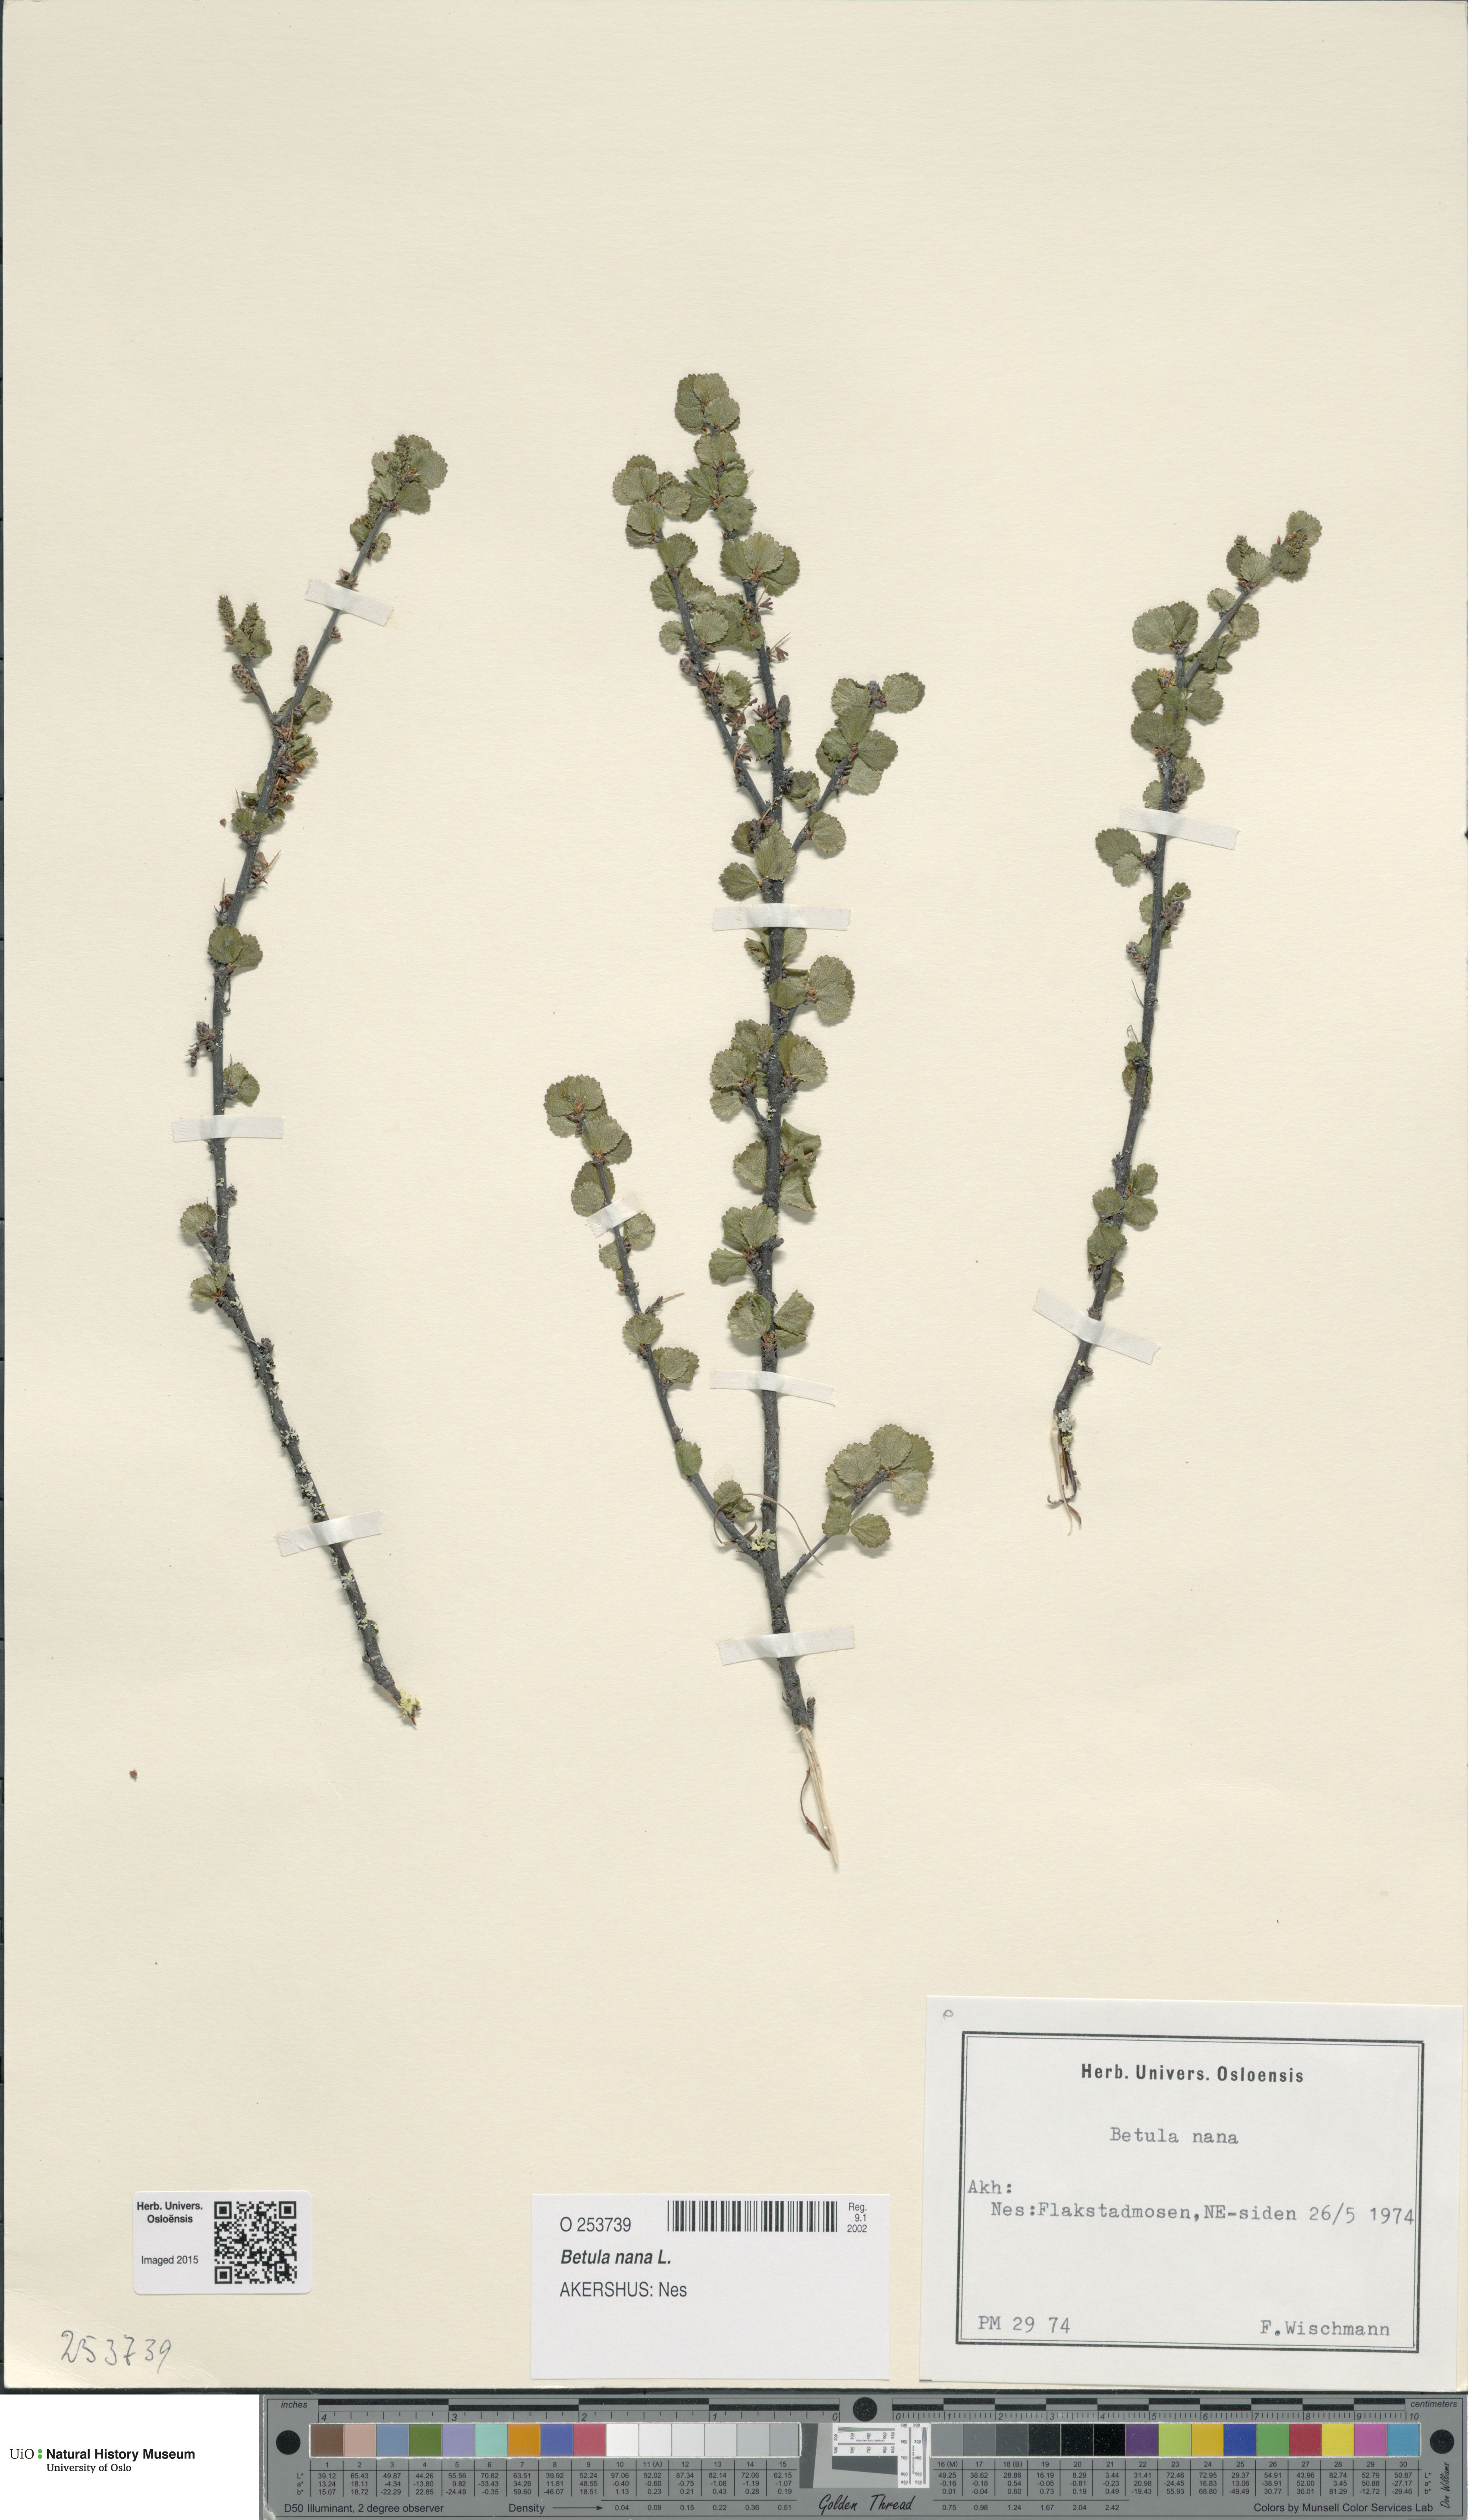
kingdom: Plantae
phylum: Tracheophyta
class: Magnoliopsida
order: Fagales
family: Betulaceae
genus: Betula
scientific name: Betula nana
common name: Arctic dwarf birch
